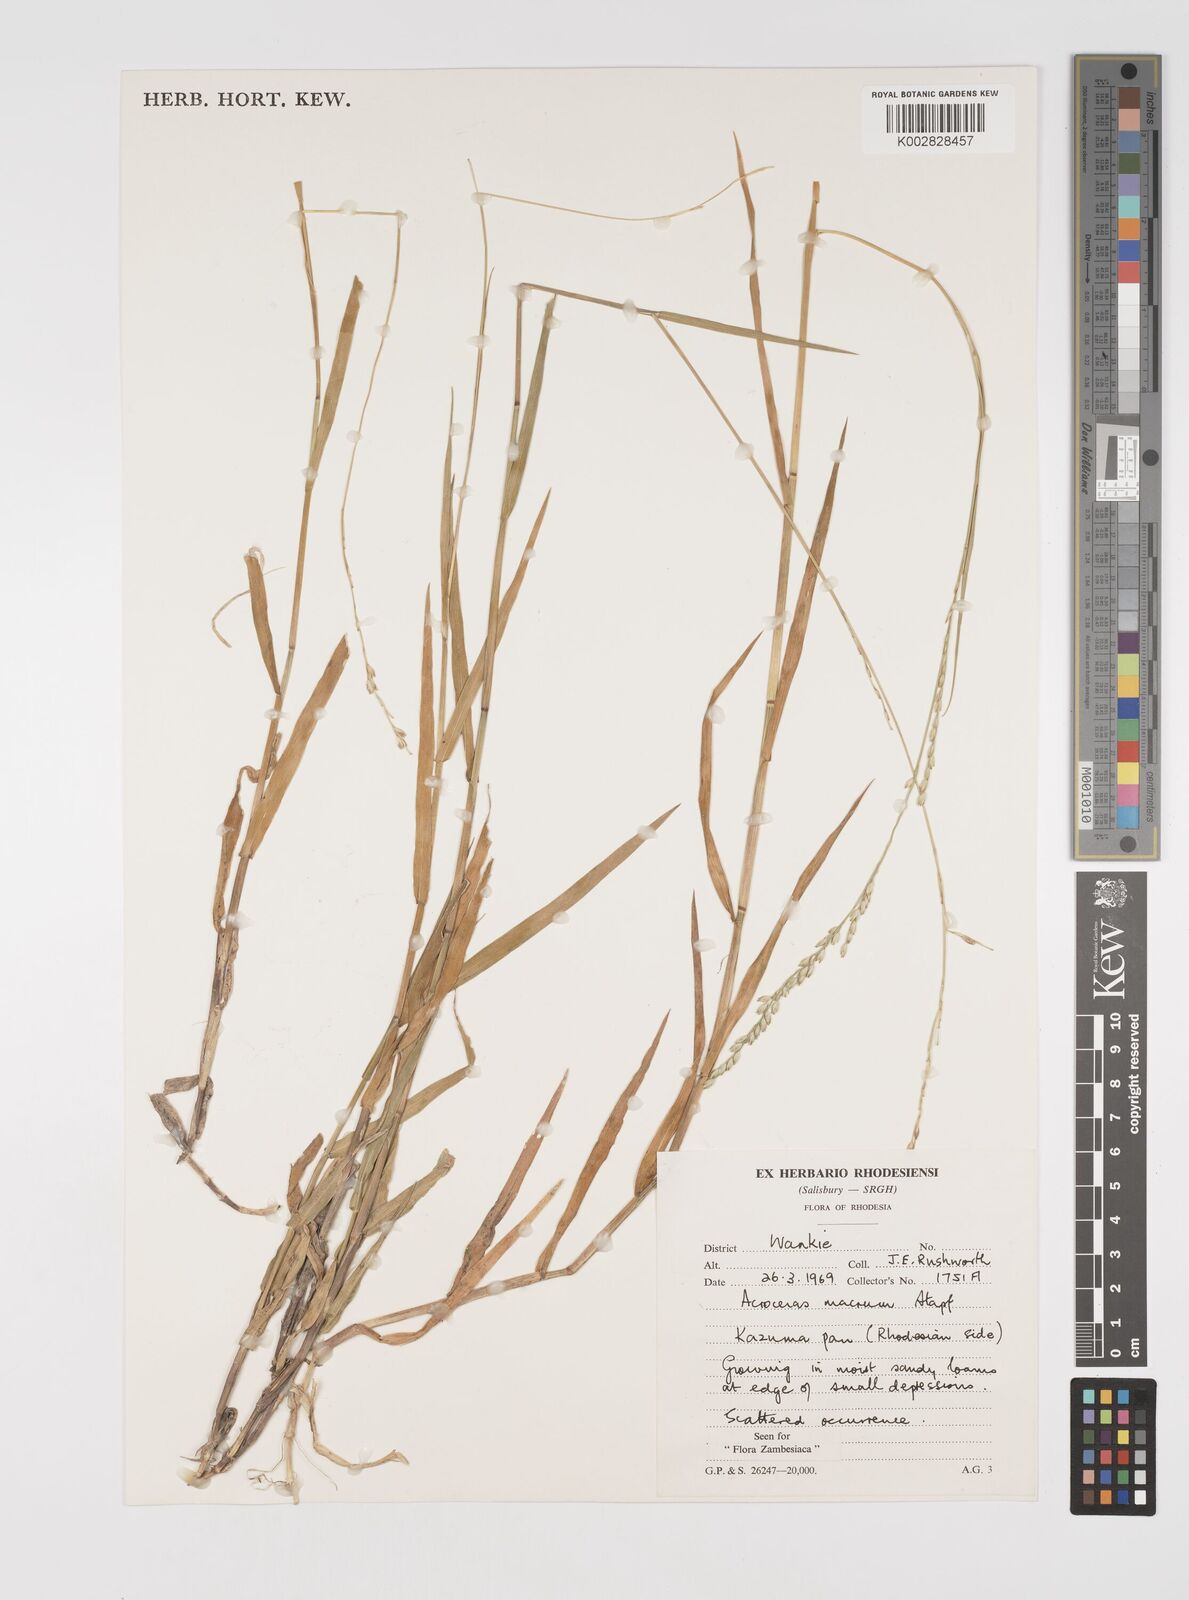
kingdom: Plantae
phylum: Tracheophyta
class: Liliopsida
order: Poales
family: Poaceae
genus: Acroceras
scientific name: Acroceras macrum
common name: Nyl grass
